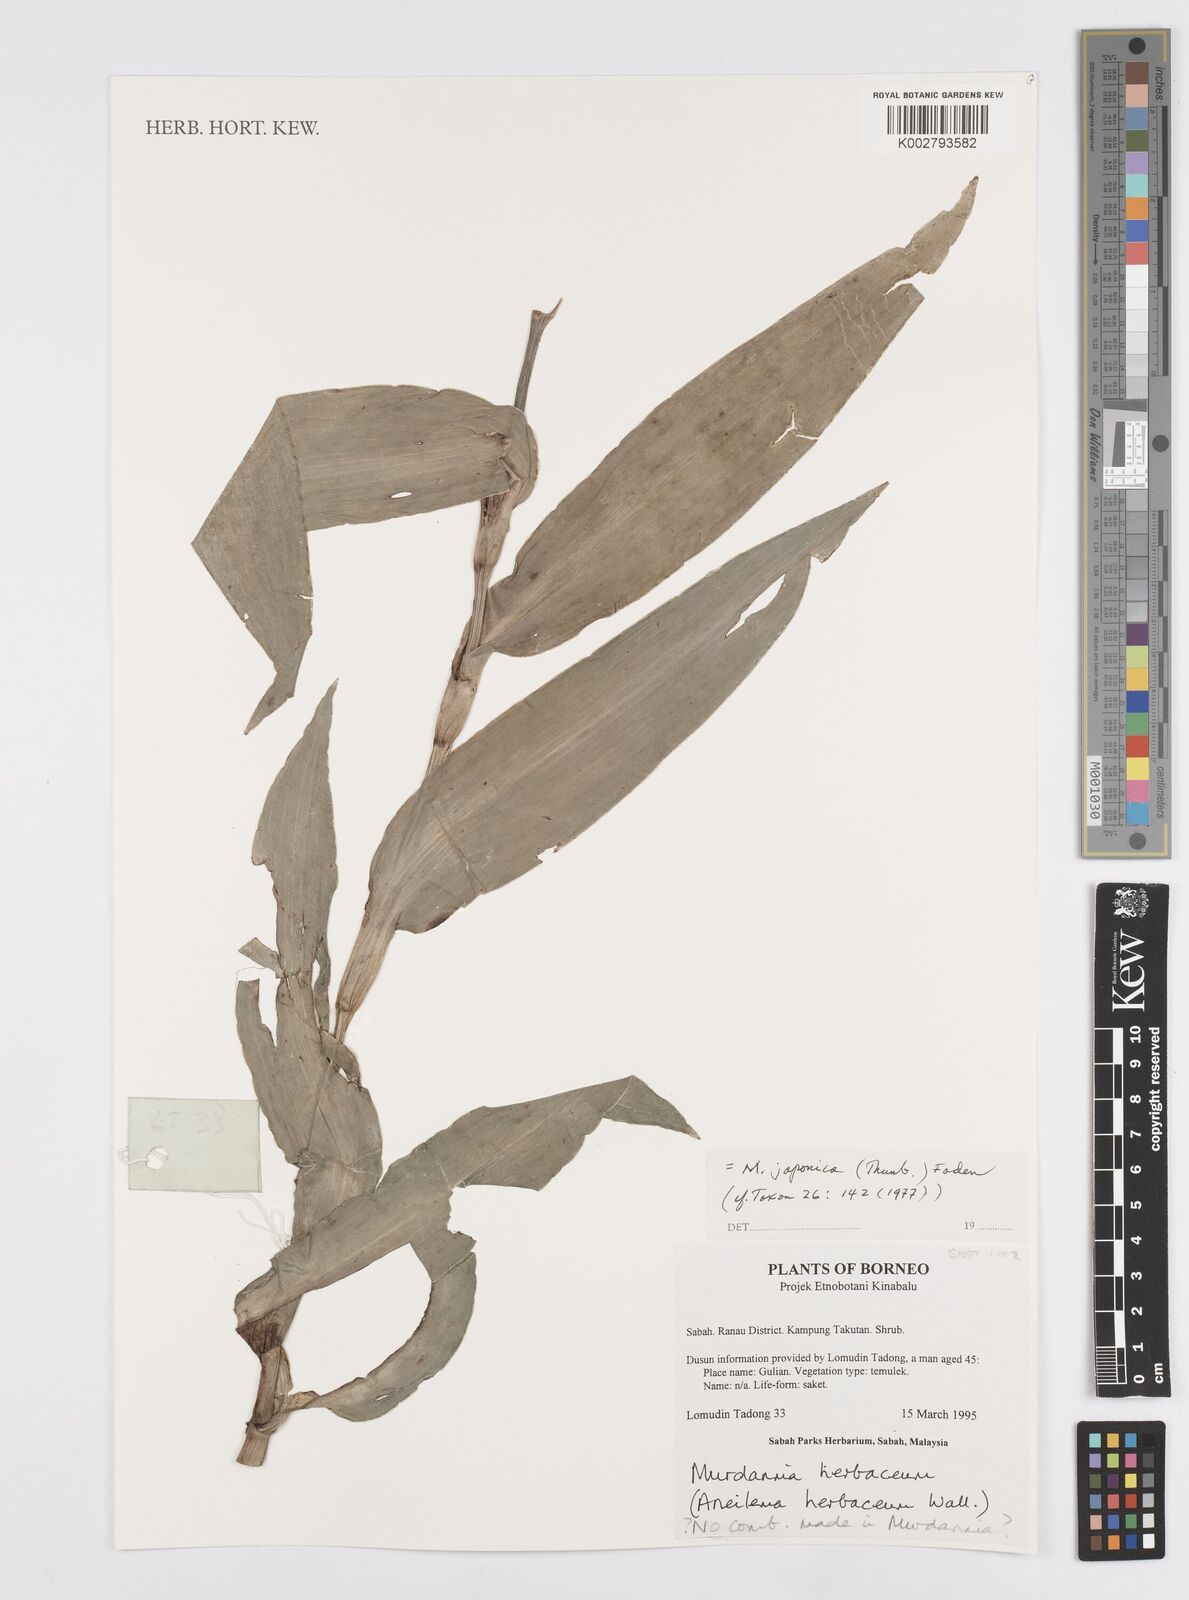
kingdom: Plantae
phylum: Tracheophyta
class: Liliopsida
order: Commelinales
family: Commelinaceae
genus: Murdannia
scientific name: Murdannia japonica
